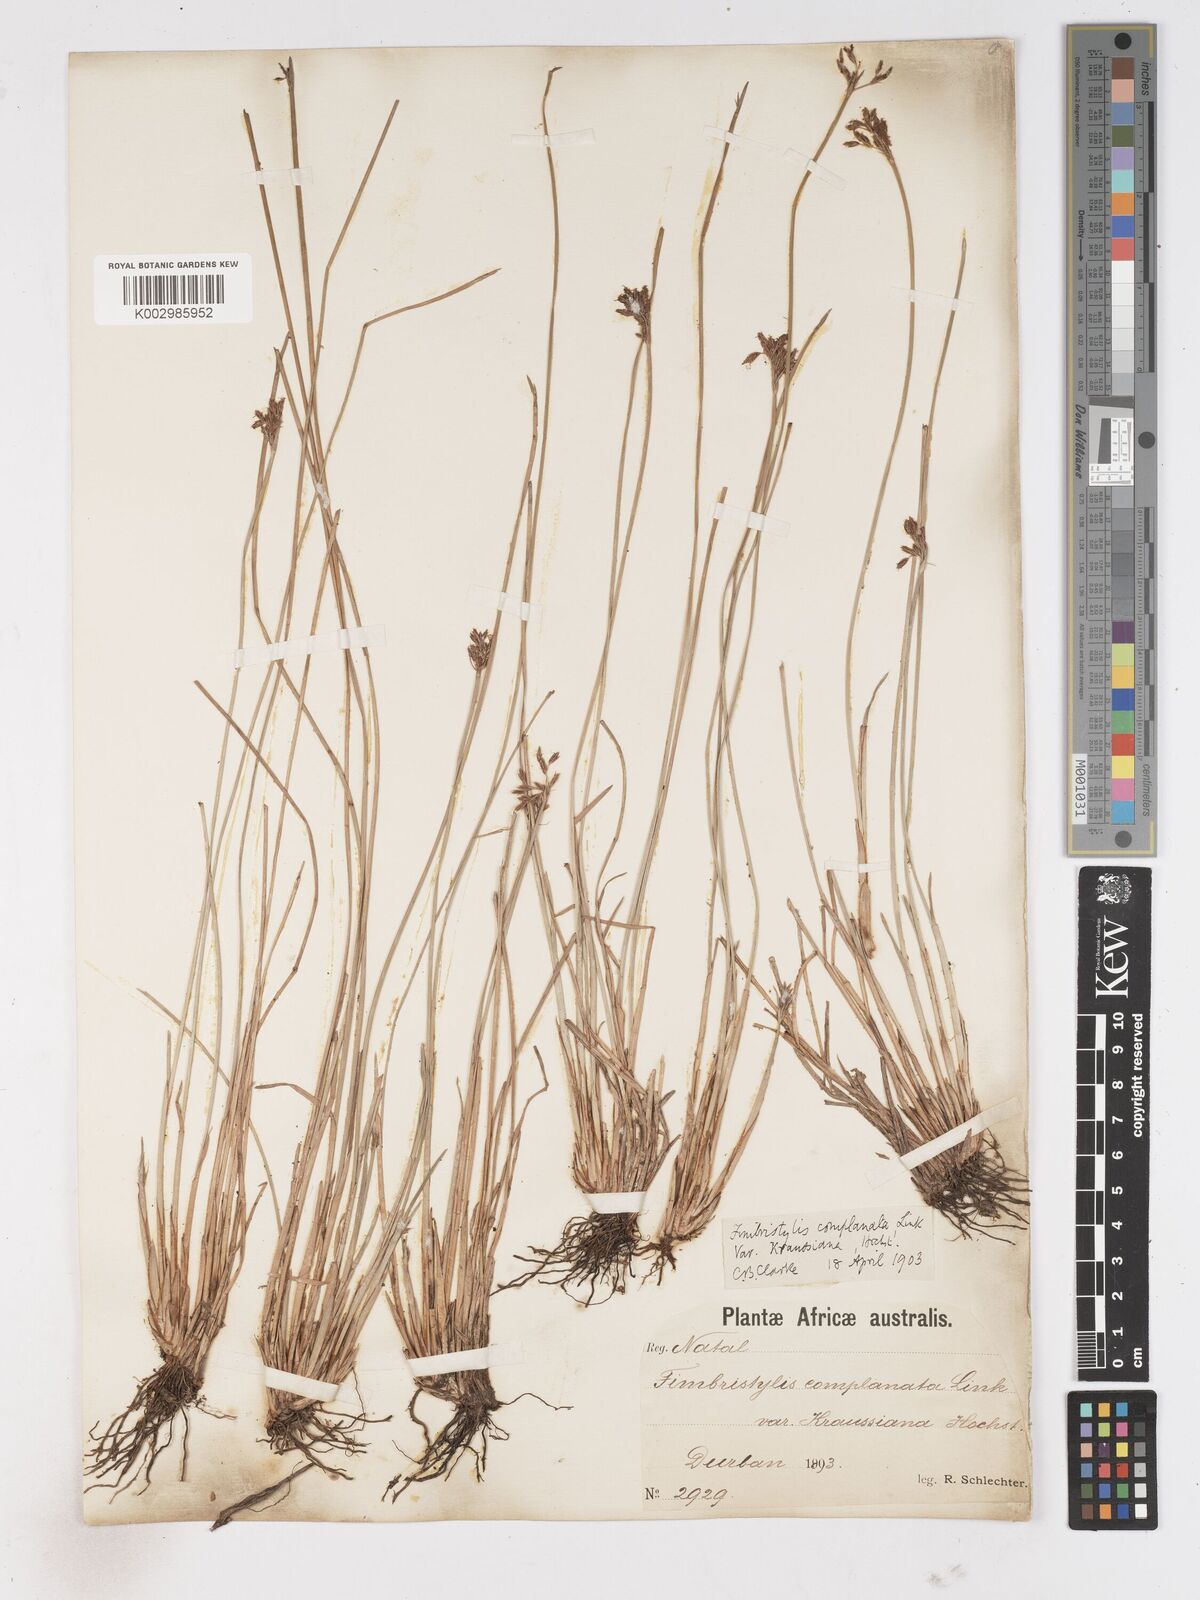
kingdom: Plantae
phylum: Tracheophyta
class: Liliopsida
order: Poales
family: Cyperaceae
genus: Fimbristylis
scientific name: Fimbristylis complanata
